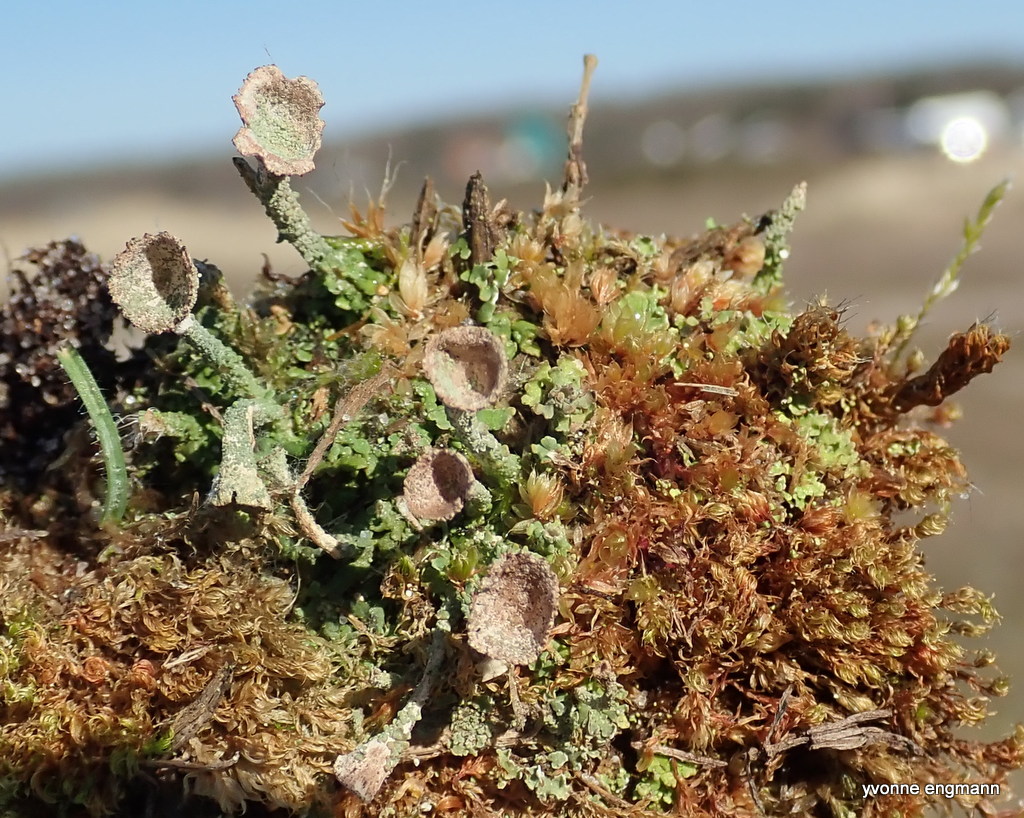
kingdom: Fungi
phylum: Ascomycota
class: Lecanoromycetes
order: Lecanorales
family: Cladoniaceae
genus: Cladonia
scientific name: Cladonia
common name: brungrøn bægerlav
